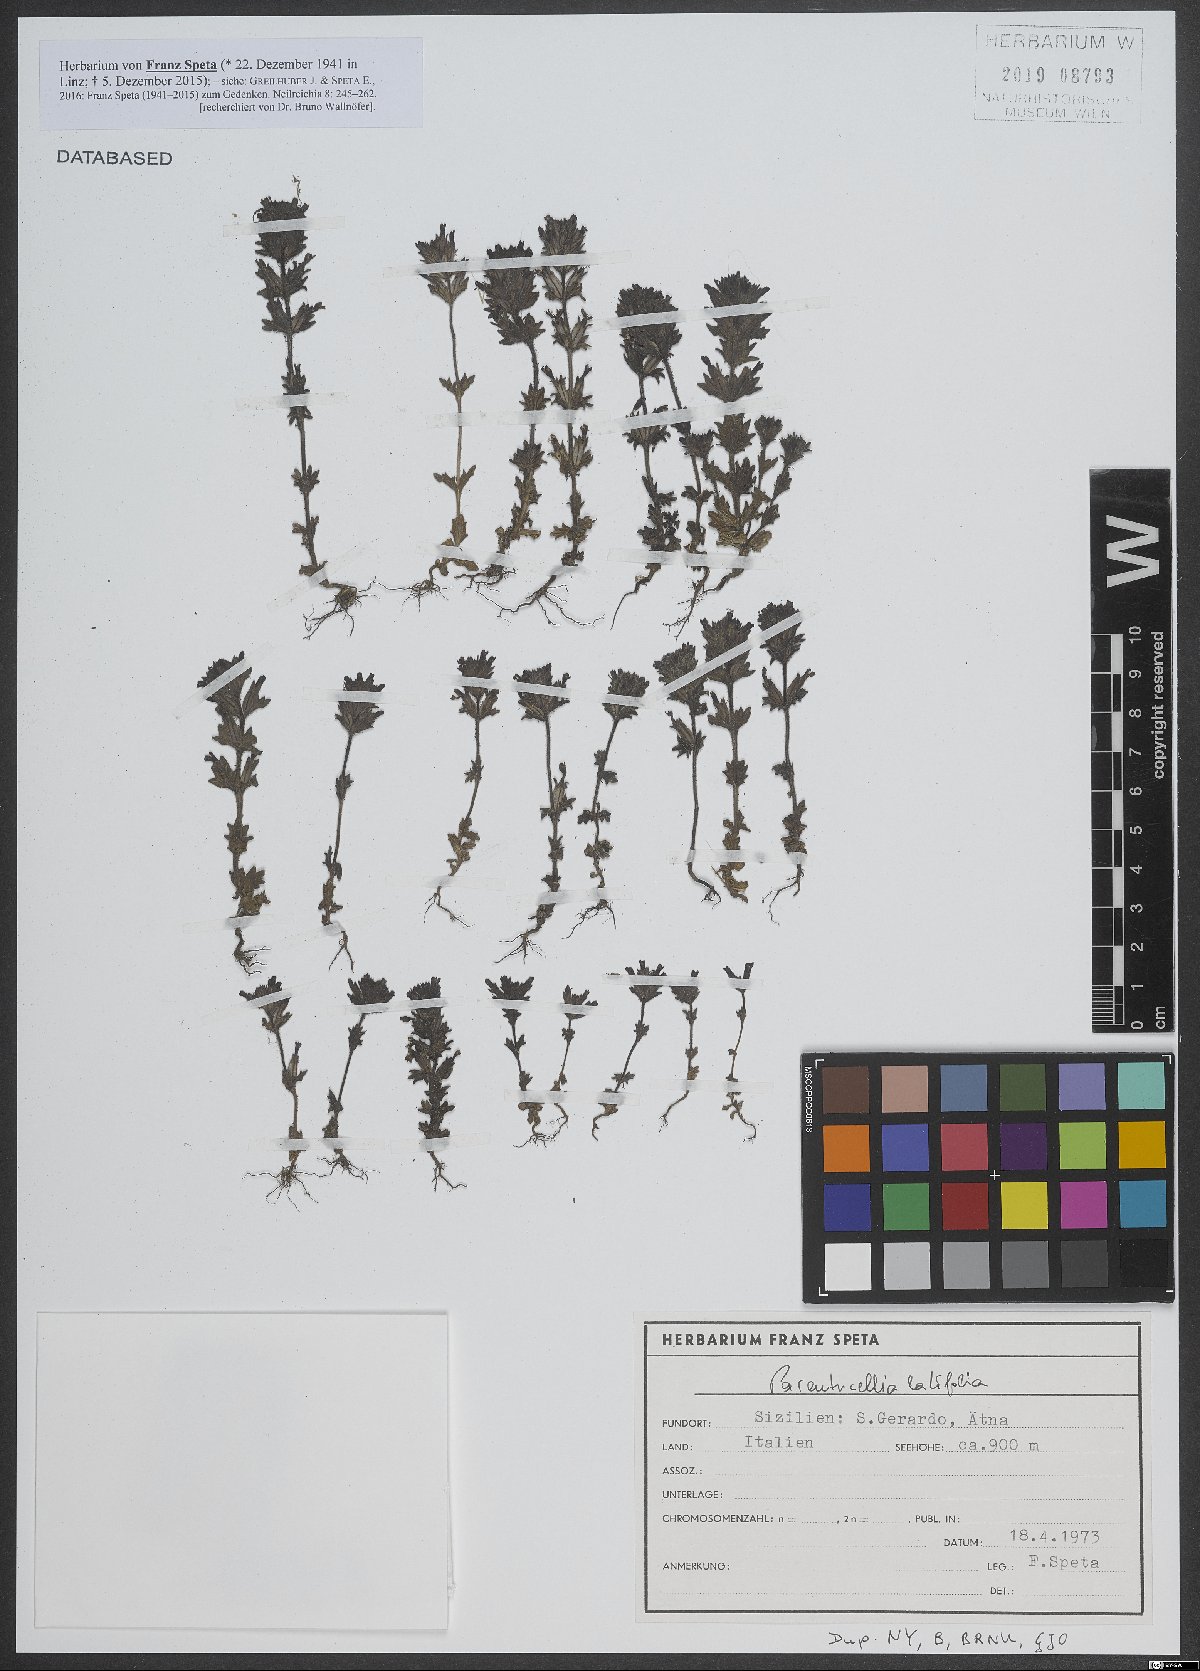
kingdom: Plantae
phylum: Tracheophyta
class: Magnoliopsida
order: Lamiales
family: Orobanchaceae
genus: Parentucellia
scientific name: Parentucellia latifolia
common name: Broadleaf glandweed
